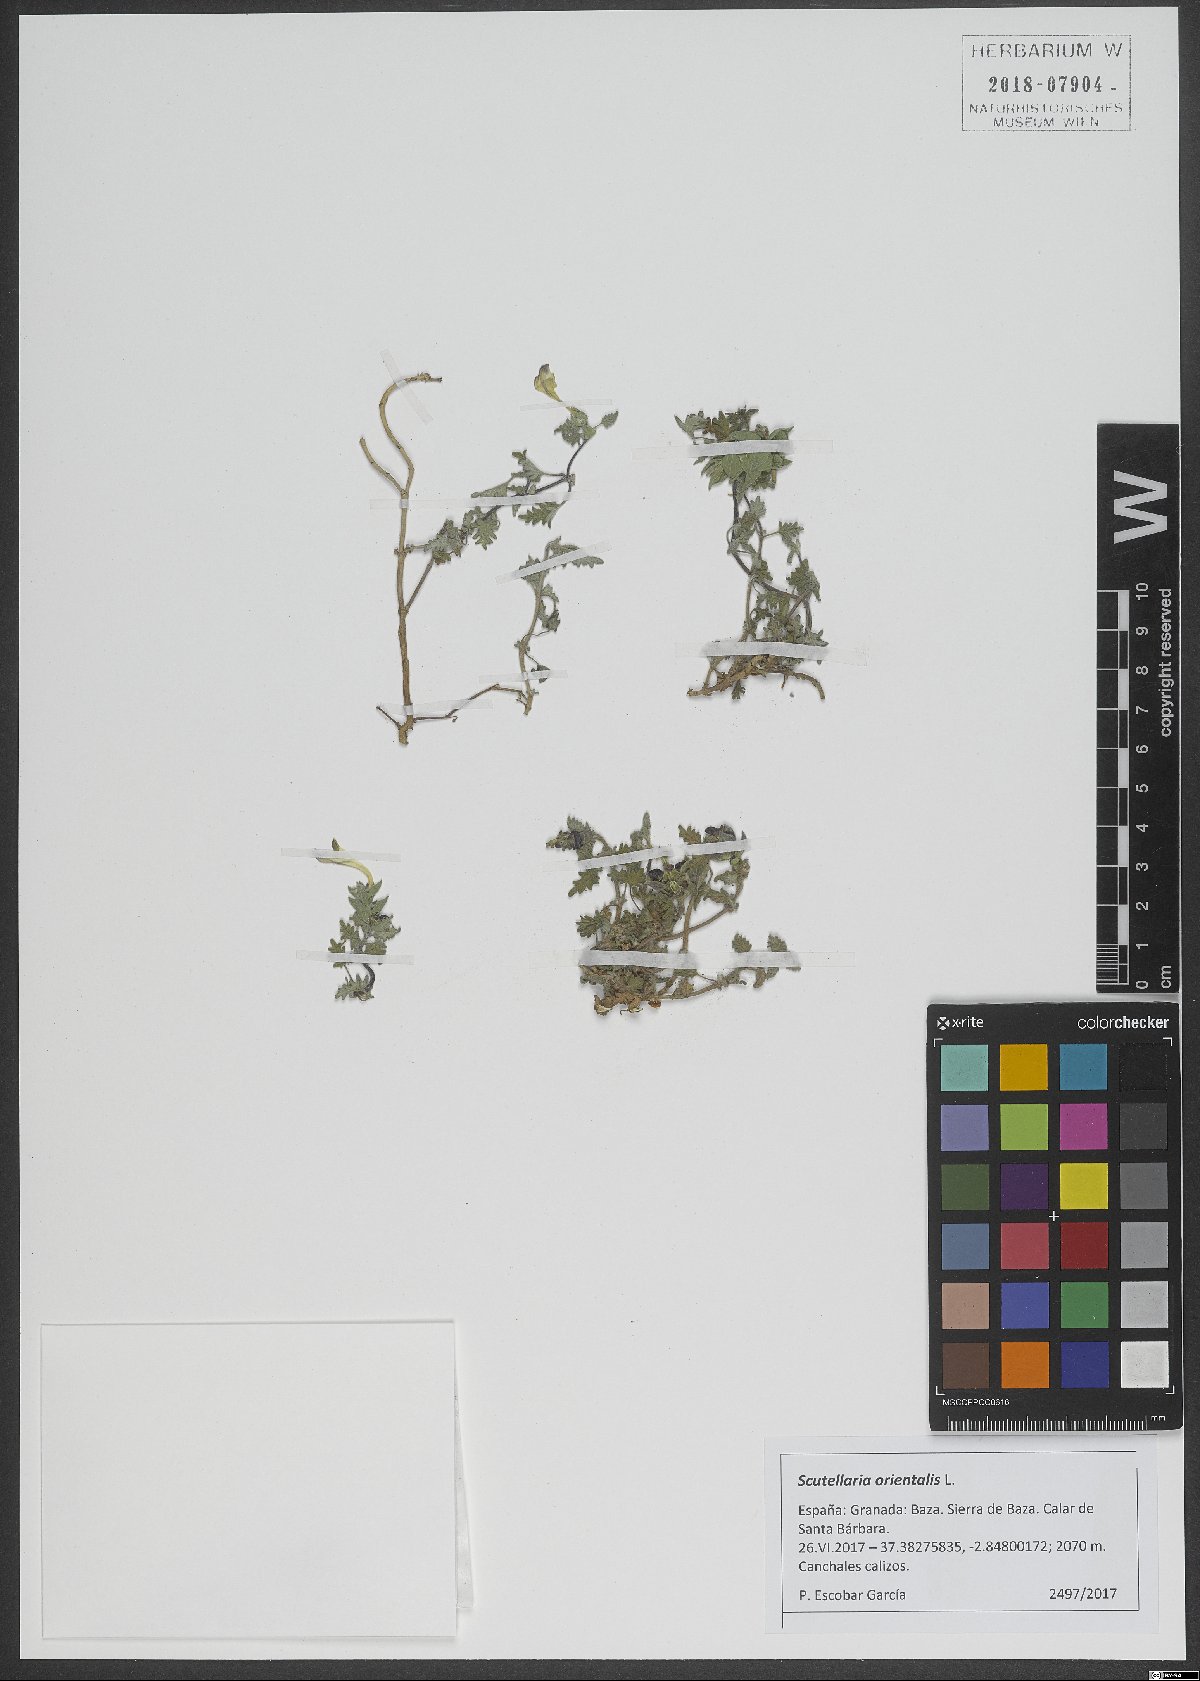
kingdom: Plantae
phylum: Tracheophyta
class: Magnoliopsida
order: Lamiales
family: Lamiaceae
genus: Scutellaria
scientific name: Scutellaria orientalis
